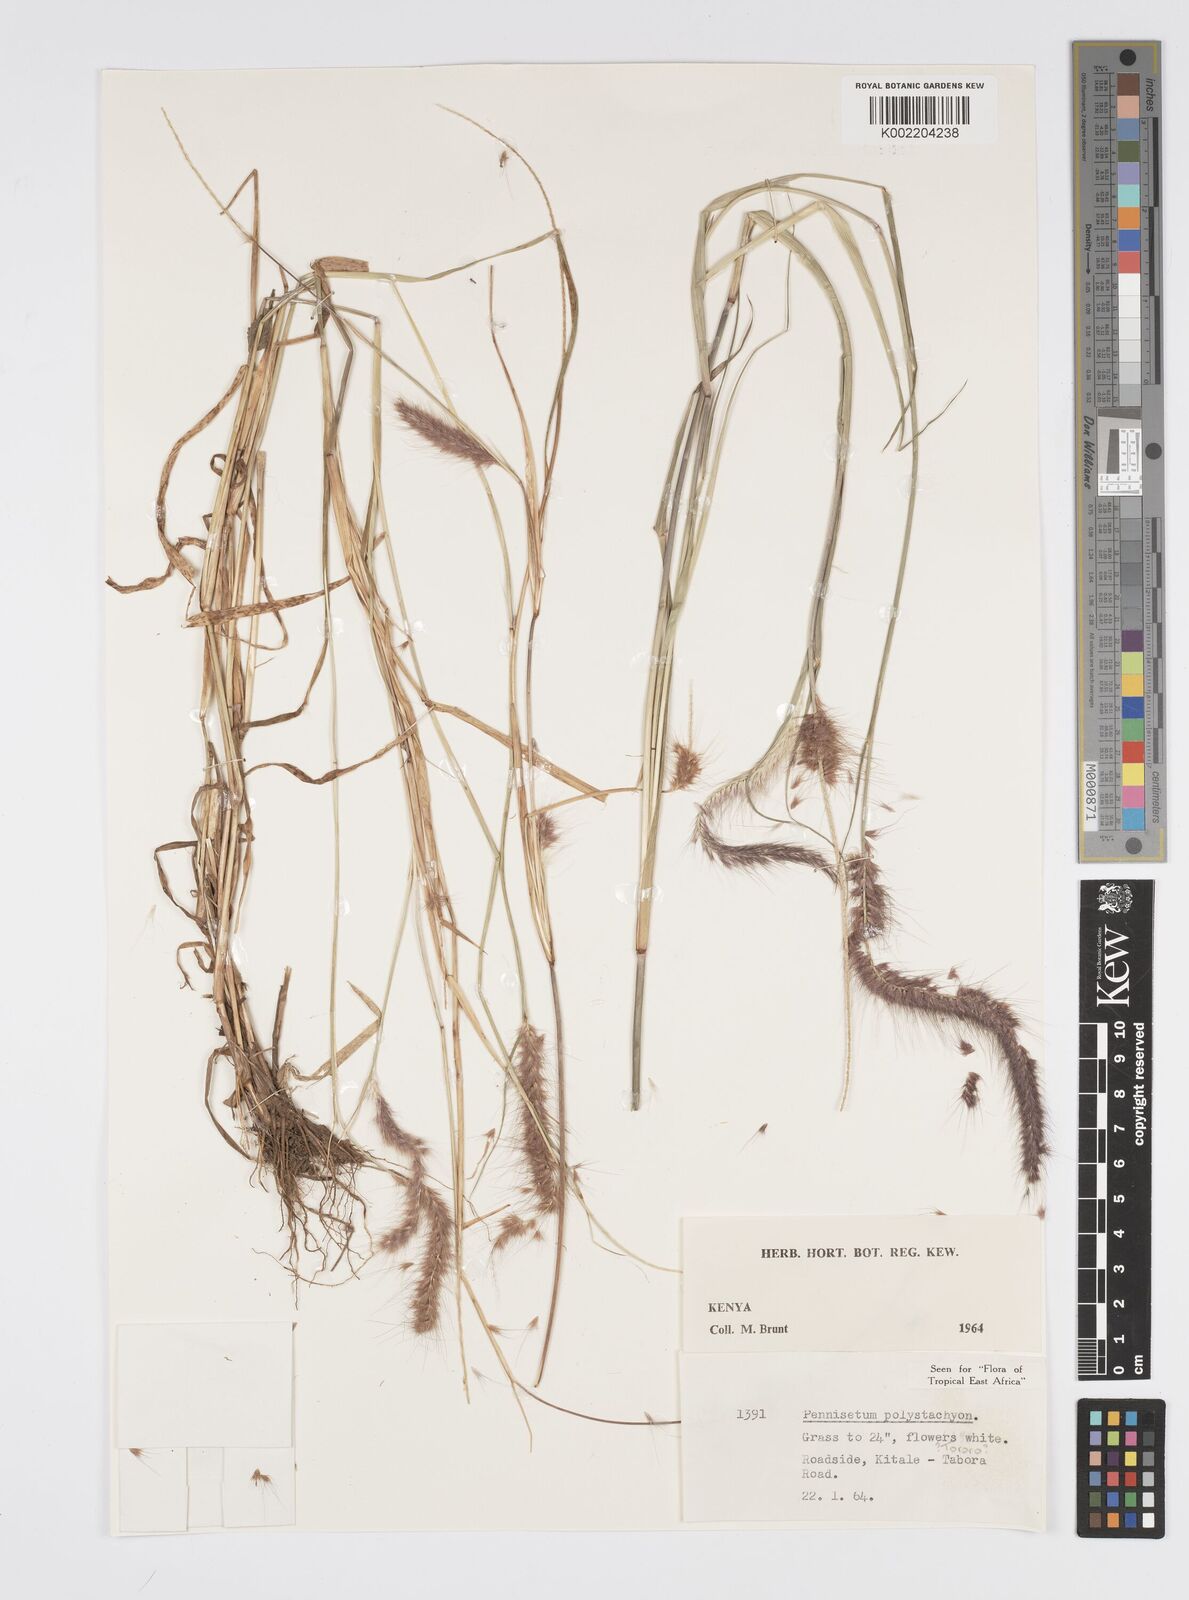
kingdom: Plantae
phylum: Tracheophyta
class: Liliopsida
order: Poales
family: Poaceae
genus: Setaria
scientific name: Setaria parviflora
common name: Knotroot bristle-grass
